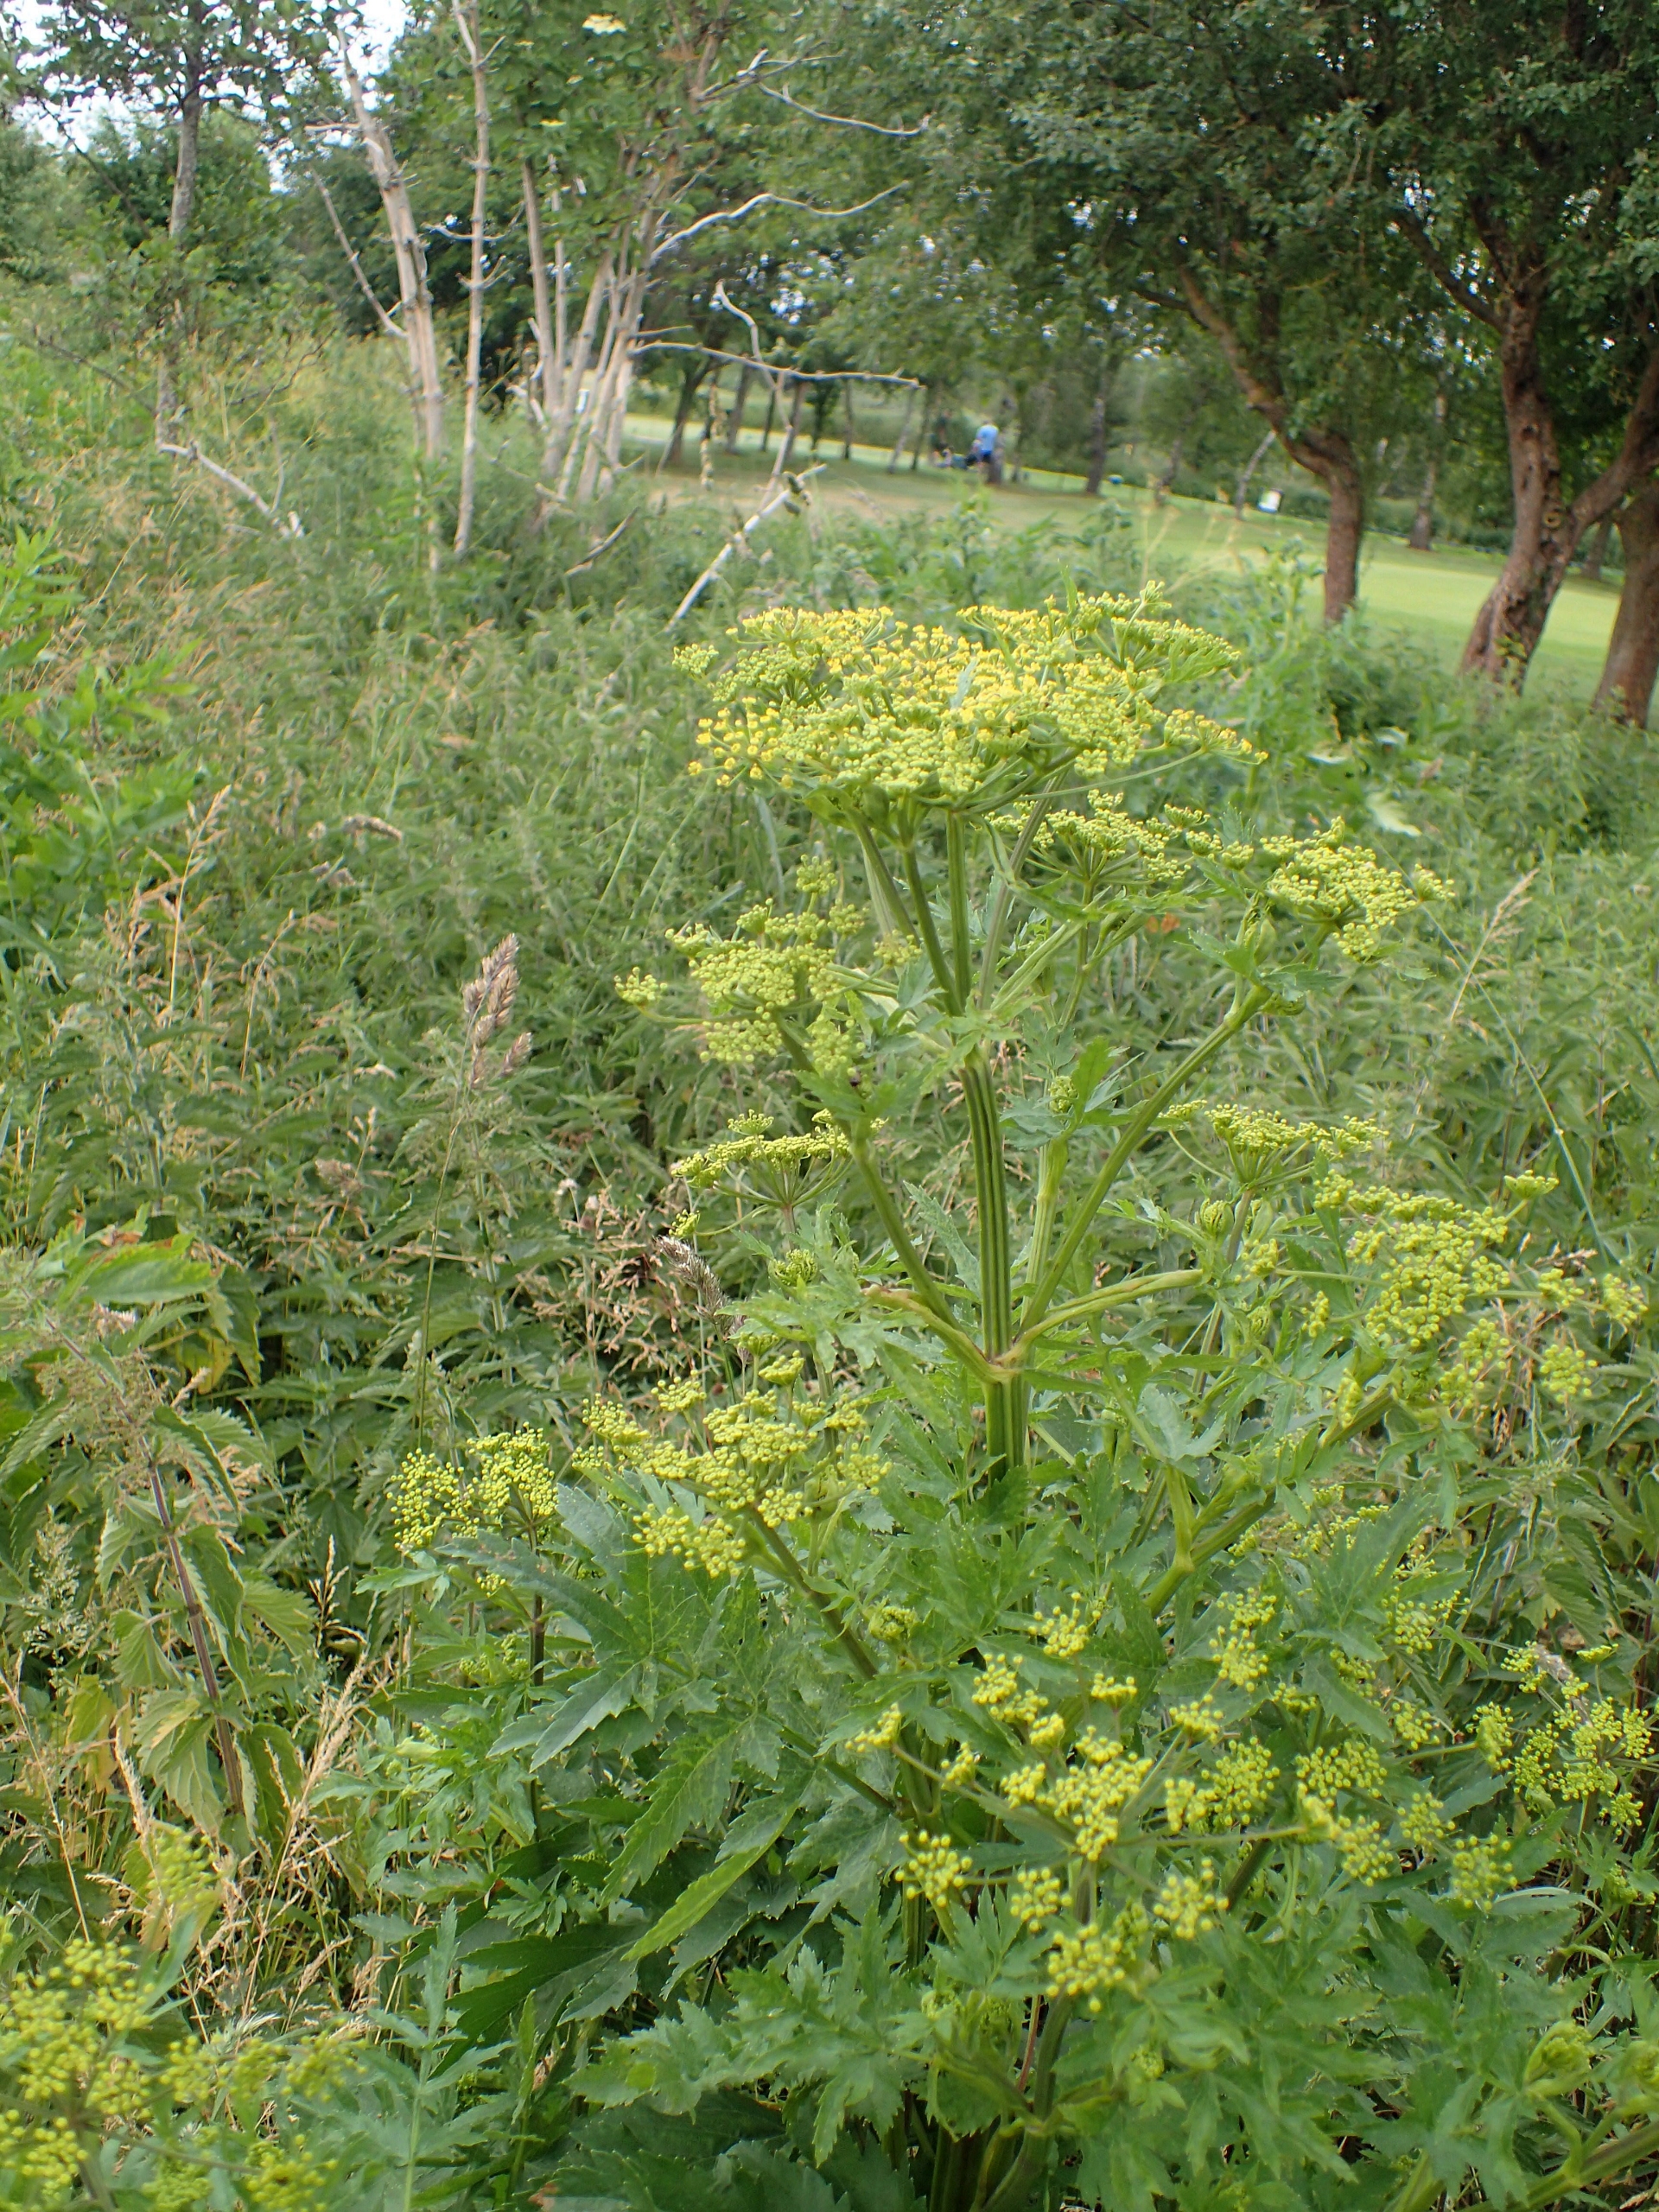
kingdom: Plantae
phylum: Tracheophyta
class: Magnoliopsida
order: Apiales
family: Apiaceae
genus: Pastinaca
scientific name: Pastinaca sativa
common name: Pastinak
